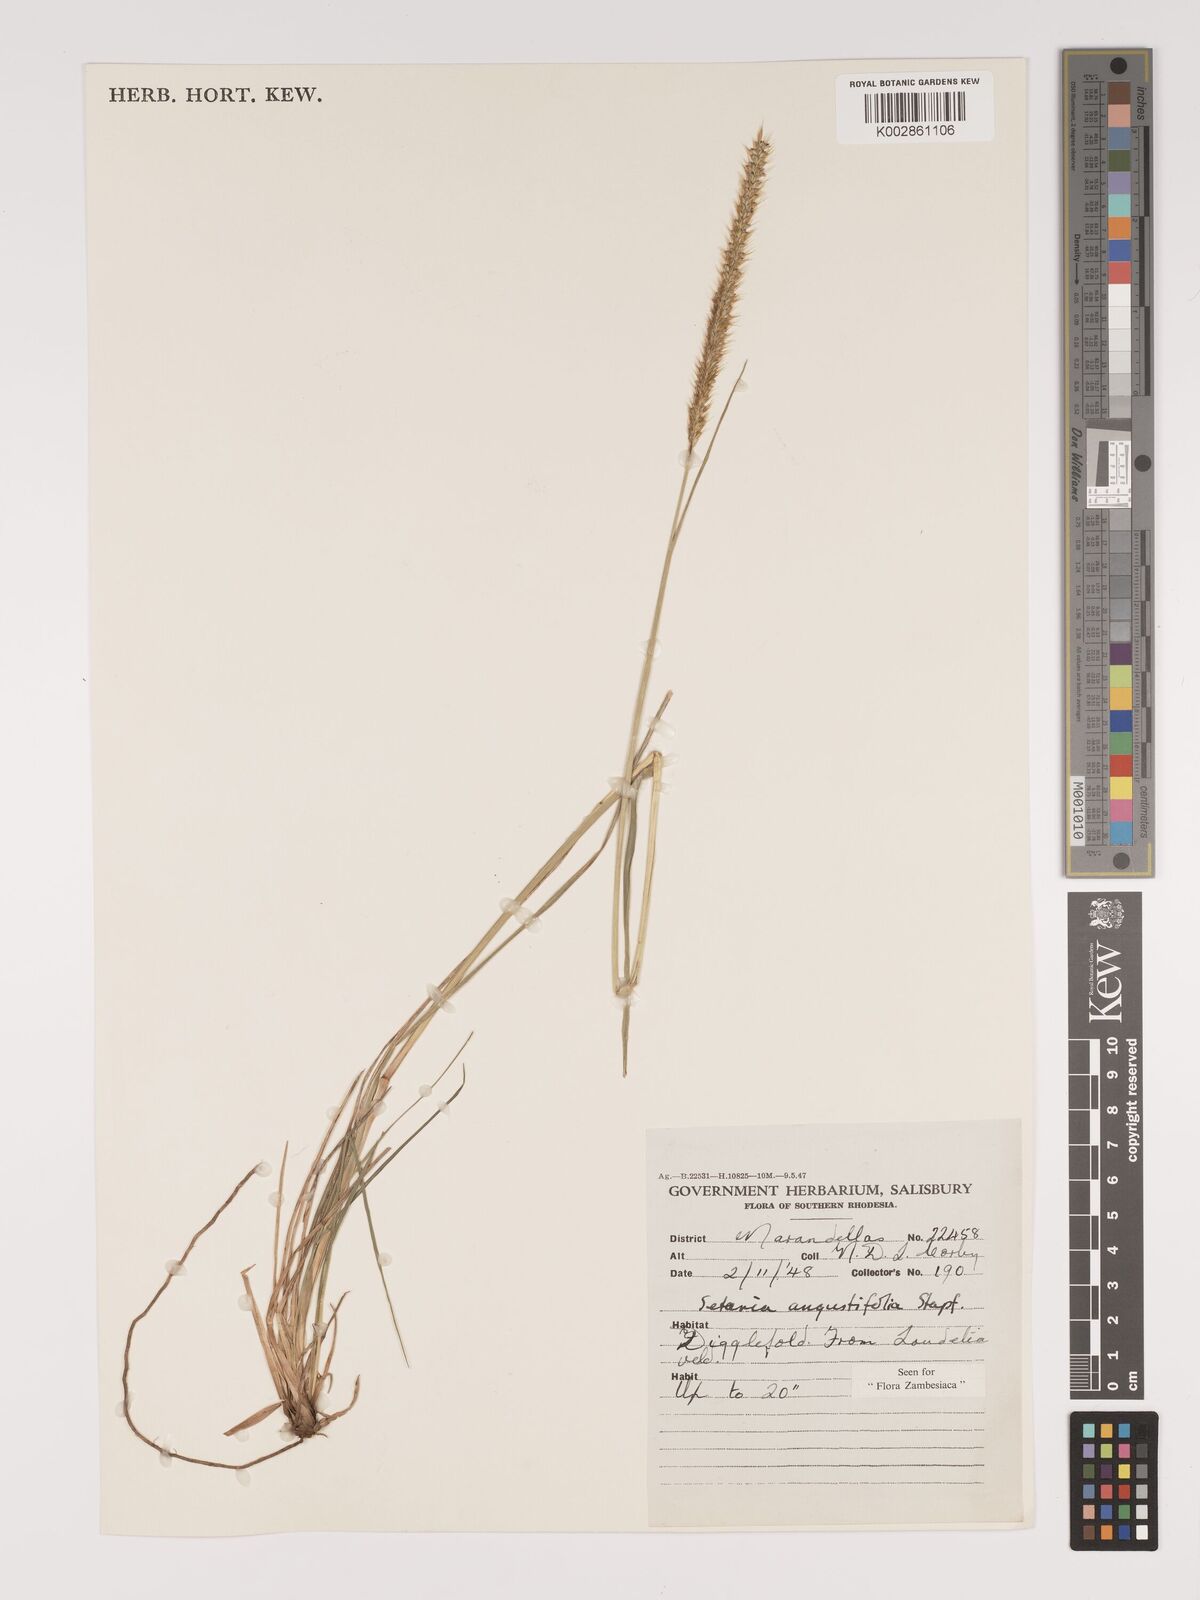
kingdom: Plantae
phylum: Tracheophyta
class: Liliopsida
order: Poales
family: Poaceae
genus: Setaria
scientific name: Setaria sphacelata
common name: African bristlegrass
